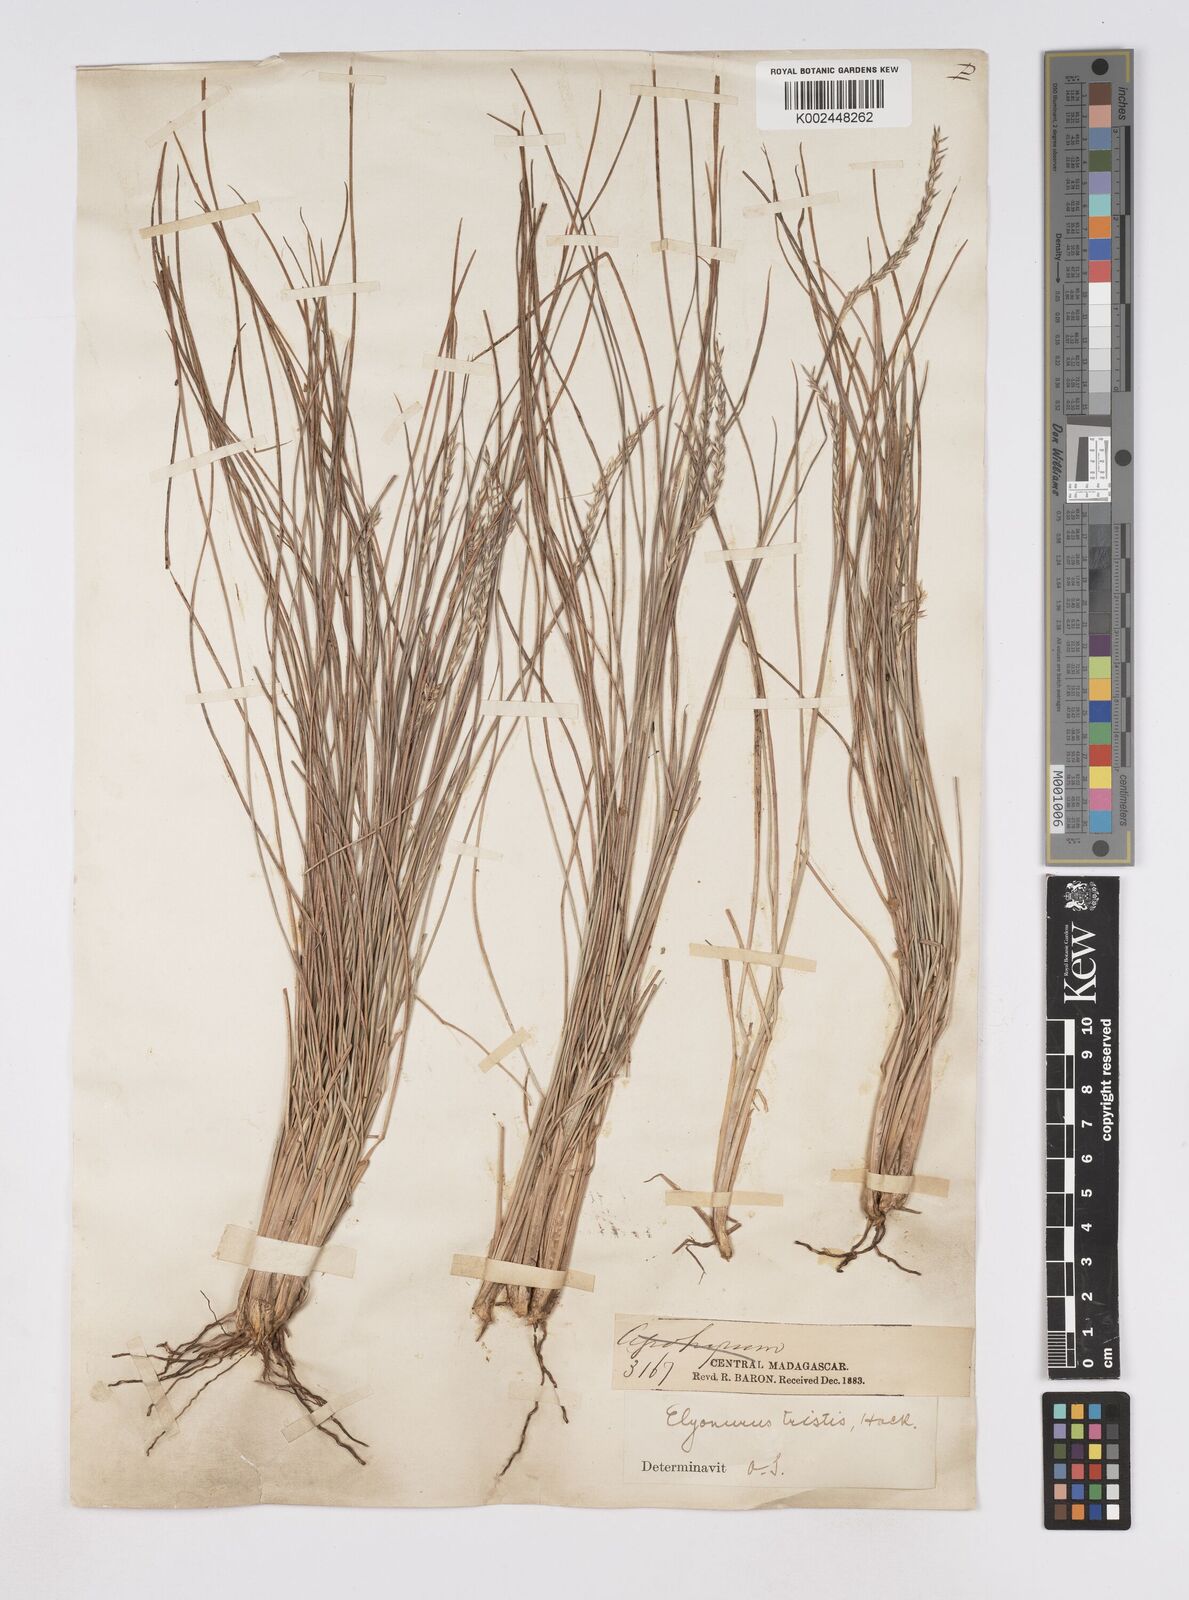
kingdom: Plantae
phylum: Tracheophyta
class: Liliopsida
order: Poales
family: Poaceae
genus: Elionurus
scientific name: Elionurus tristis
